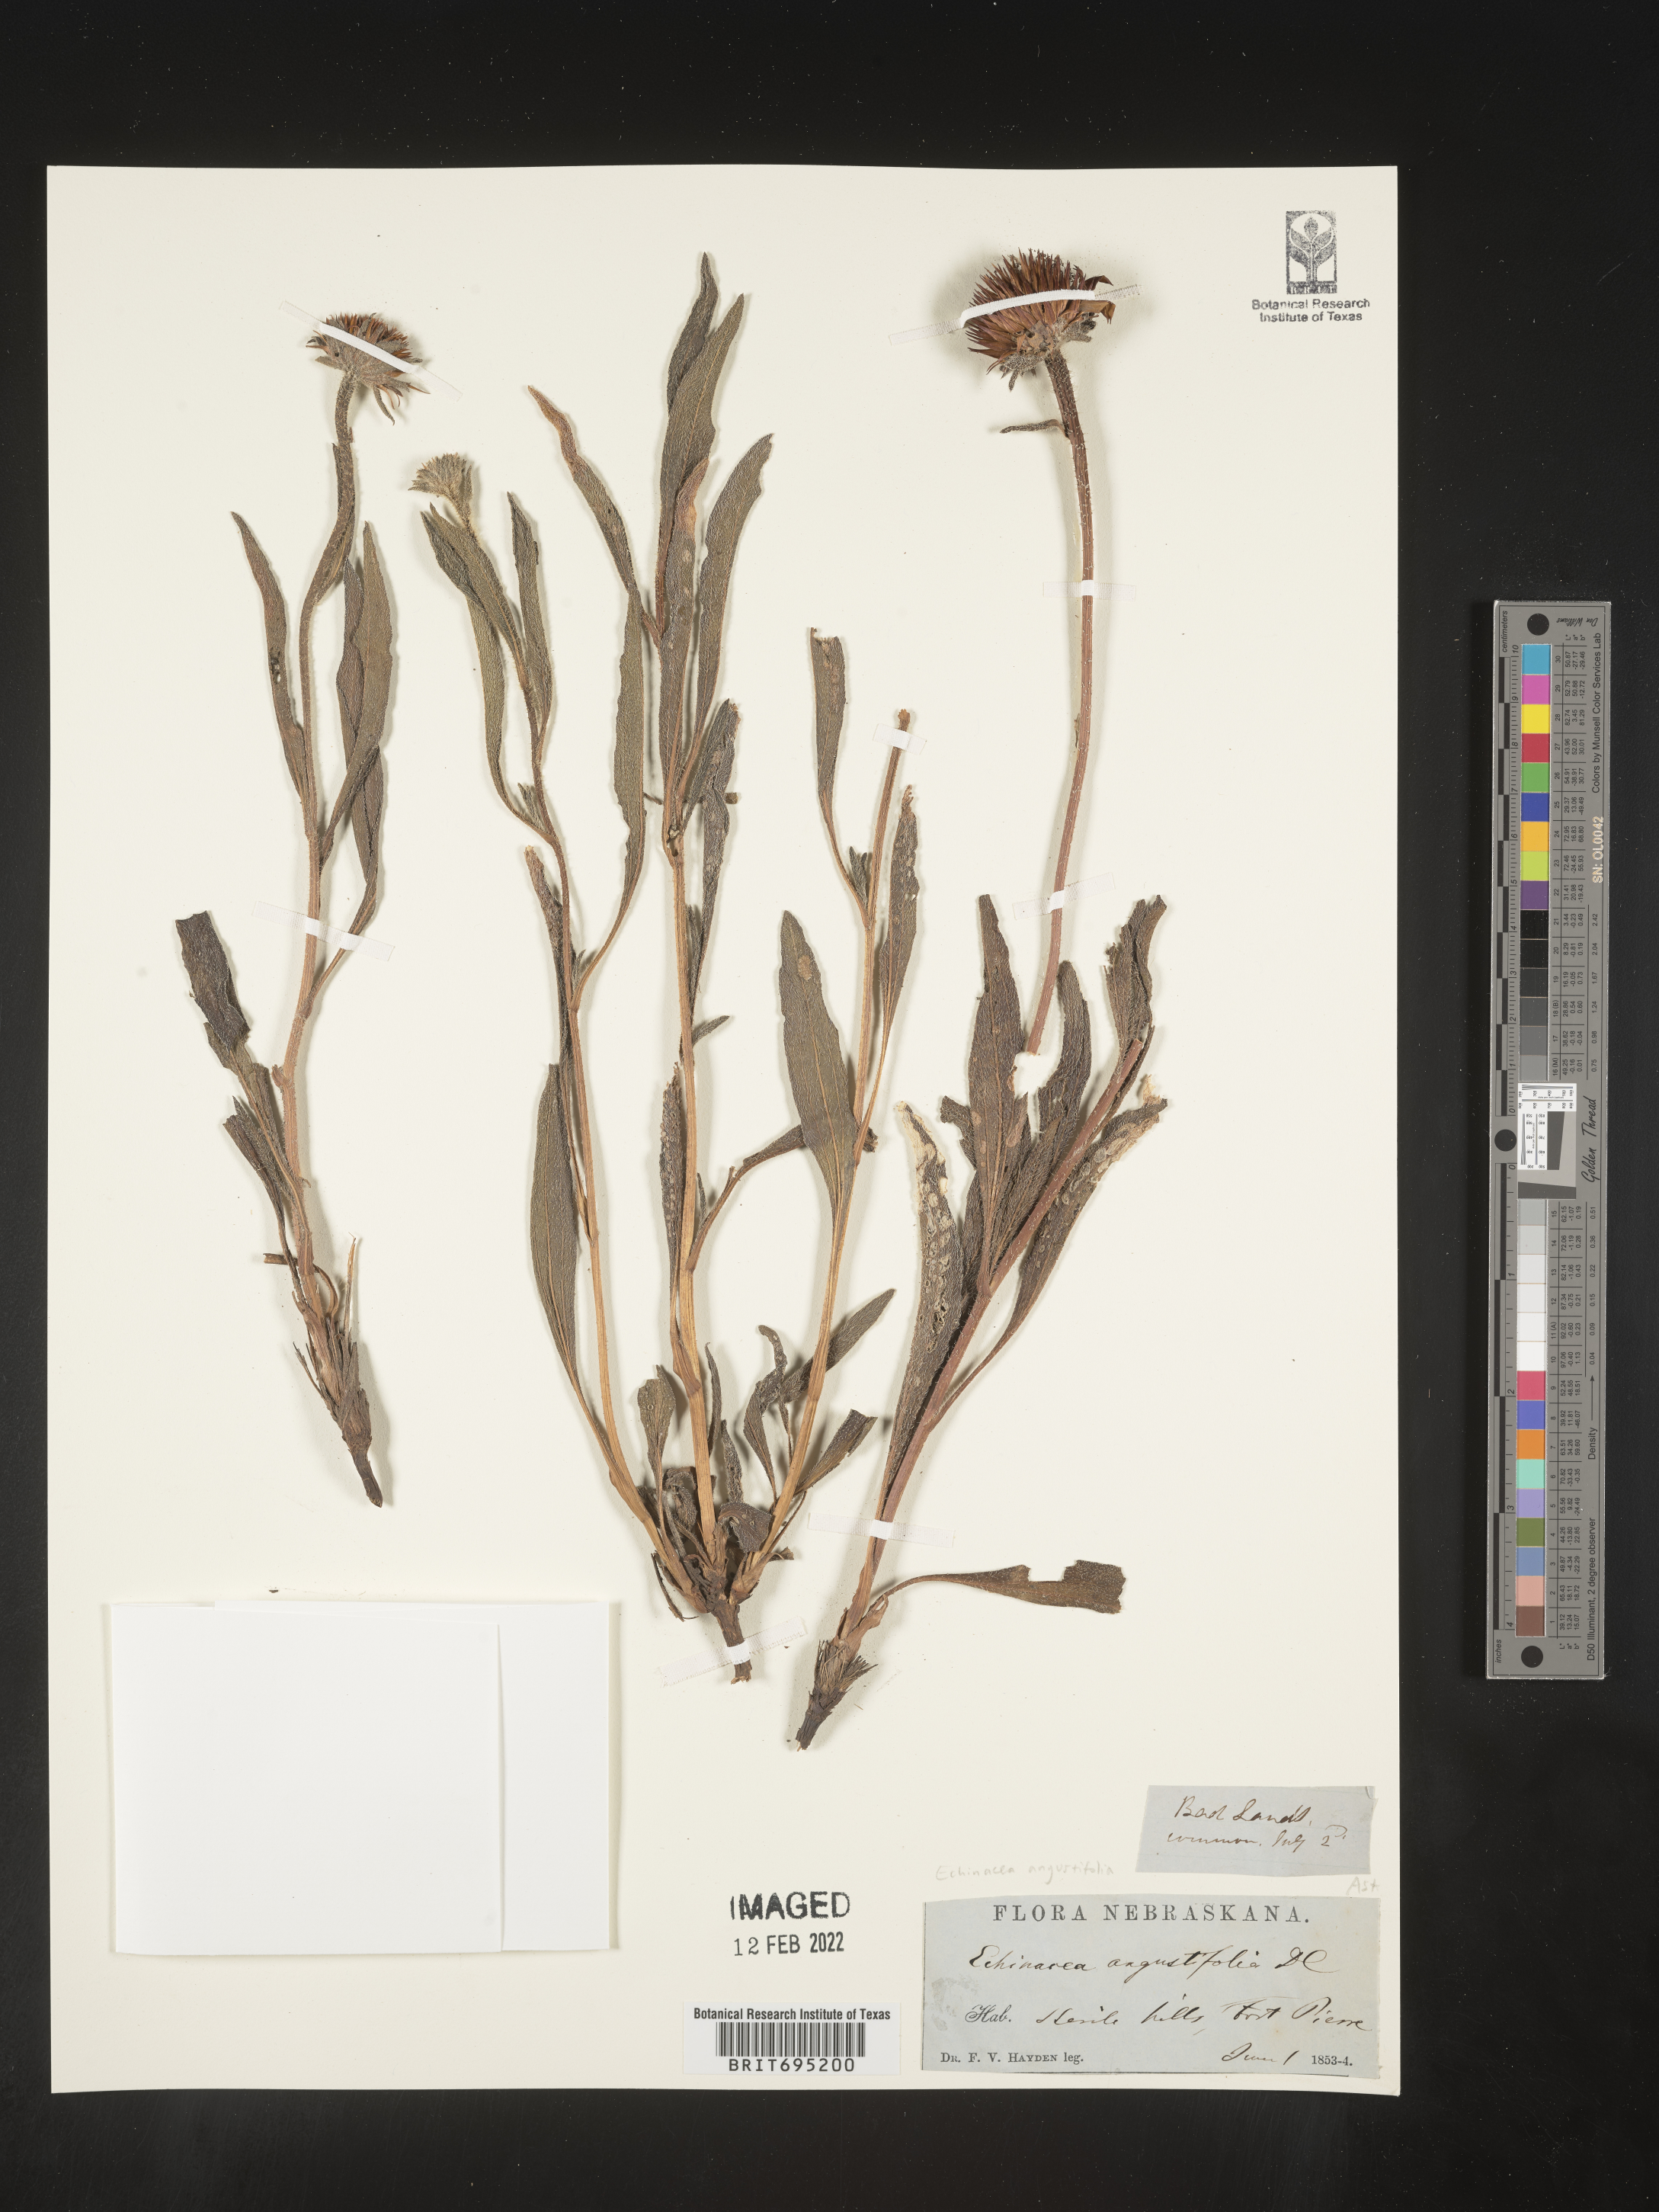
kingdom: Plantae
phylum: Tracheophyta
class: Magnoliopsida
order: Asterales
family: Asteraceae
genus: Echinacea
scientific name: Echinacea angustifolia
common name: Black-sampson echinacea
